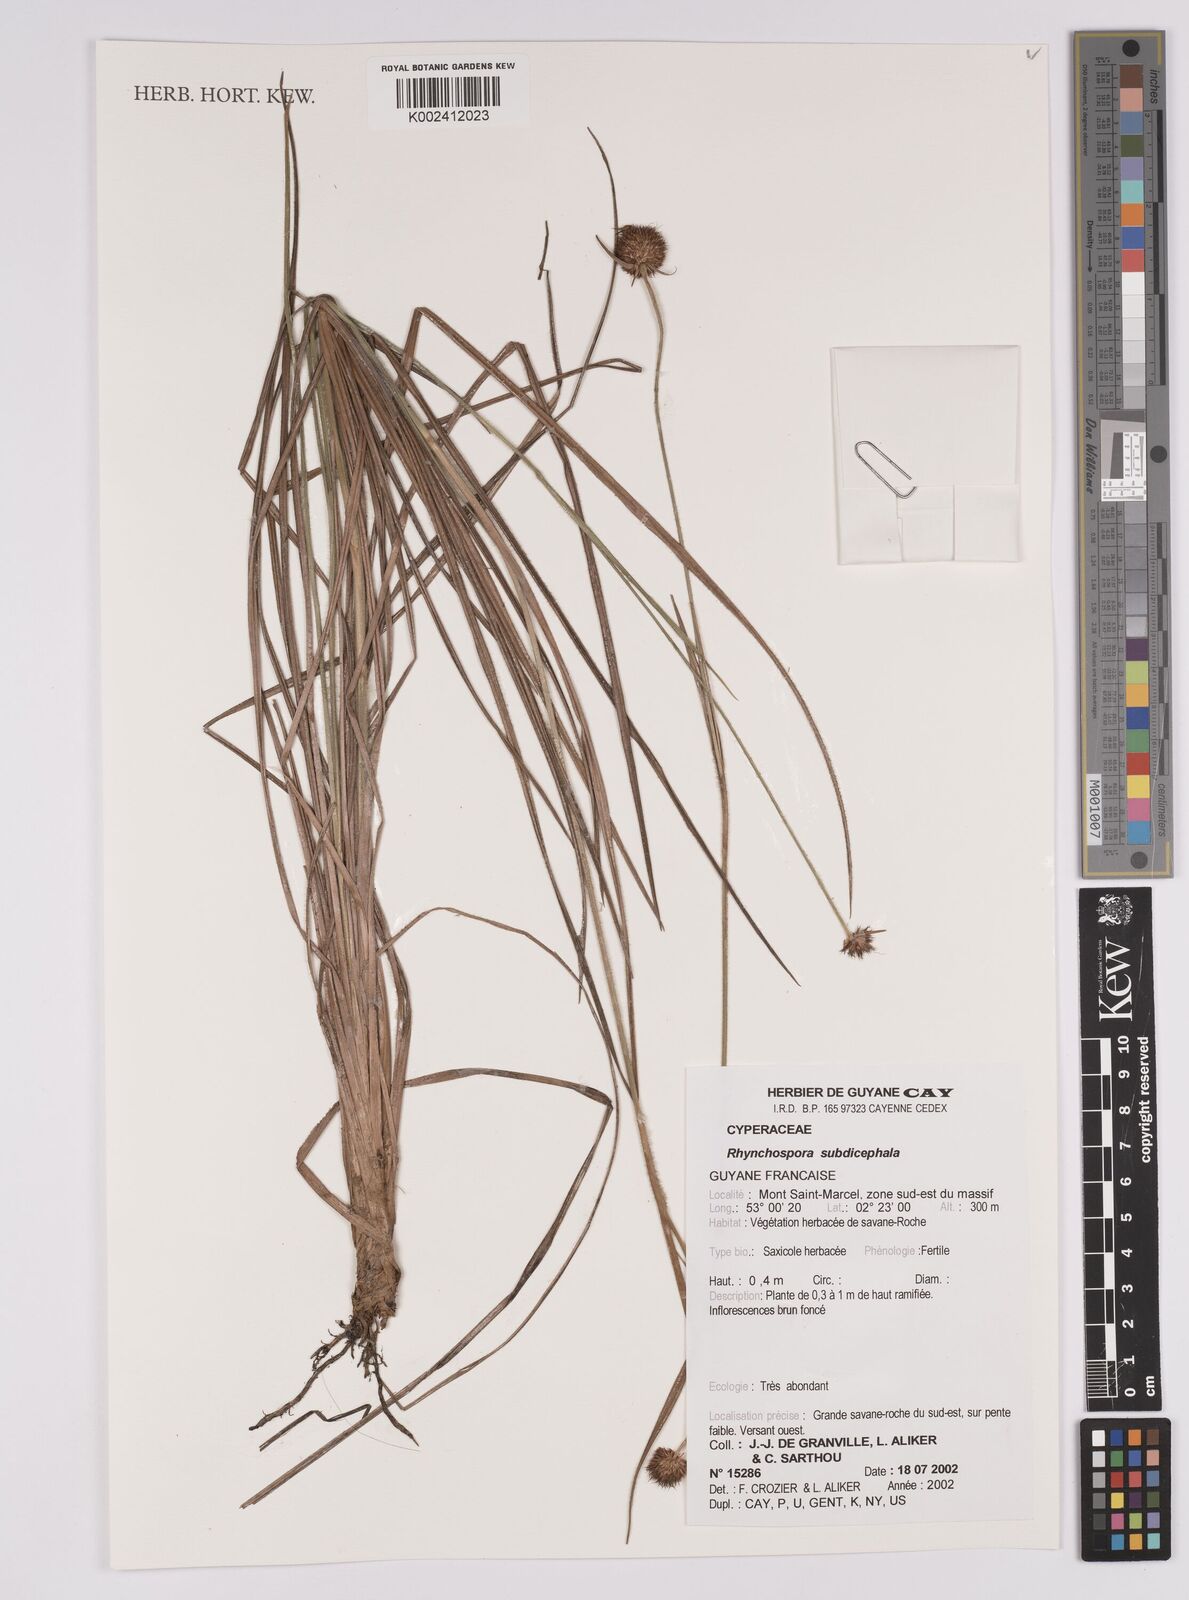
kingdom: Plantae
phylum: Tracheophyta
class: Liliopsida
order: Poales
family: Cyperaceae
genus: Rhynchospora
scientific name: Rhynchospora subdicephala
